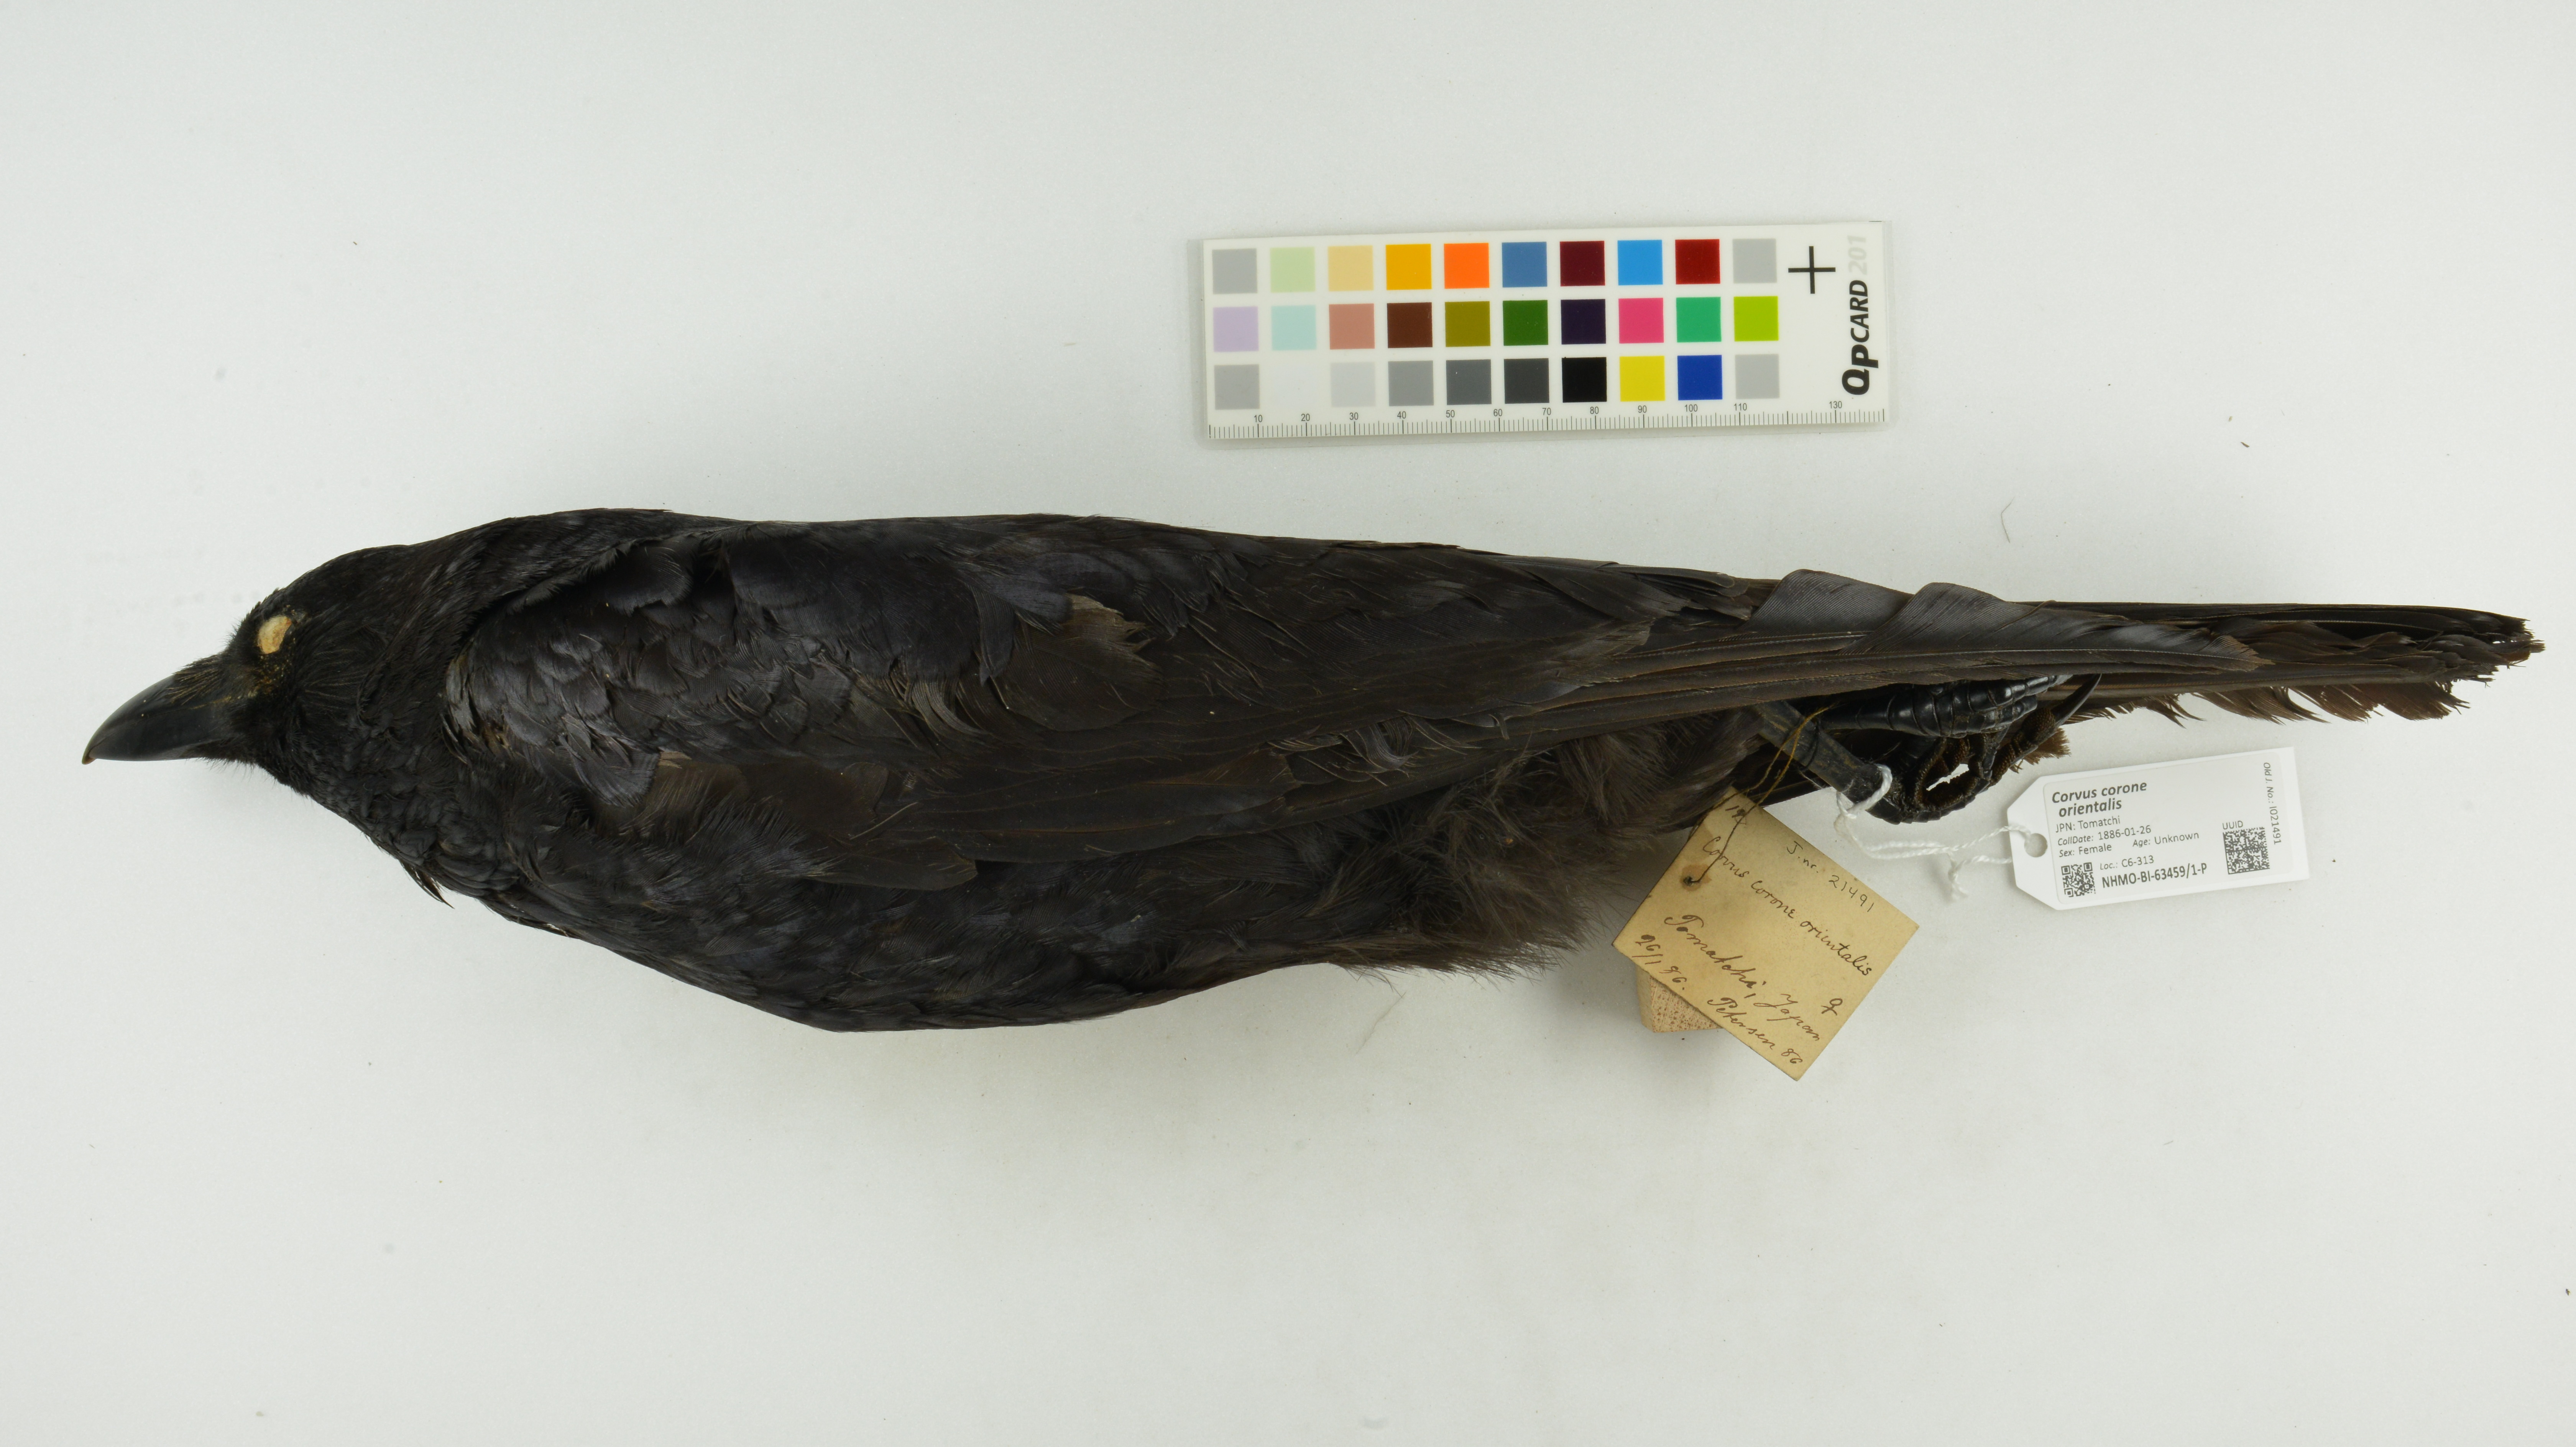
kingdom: Animalia
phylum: Chordata
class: Aves
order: Passeriformes
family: Corvidae
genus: Corvus
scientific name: Corvus corone
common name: Carrion crow
